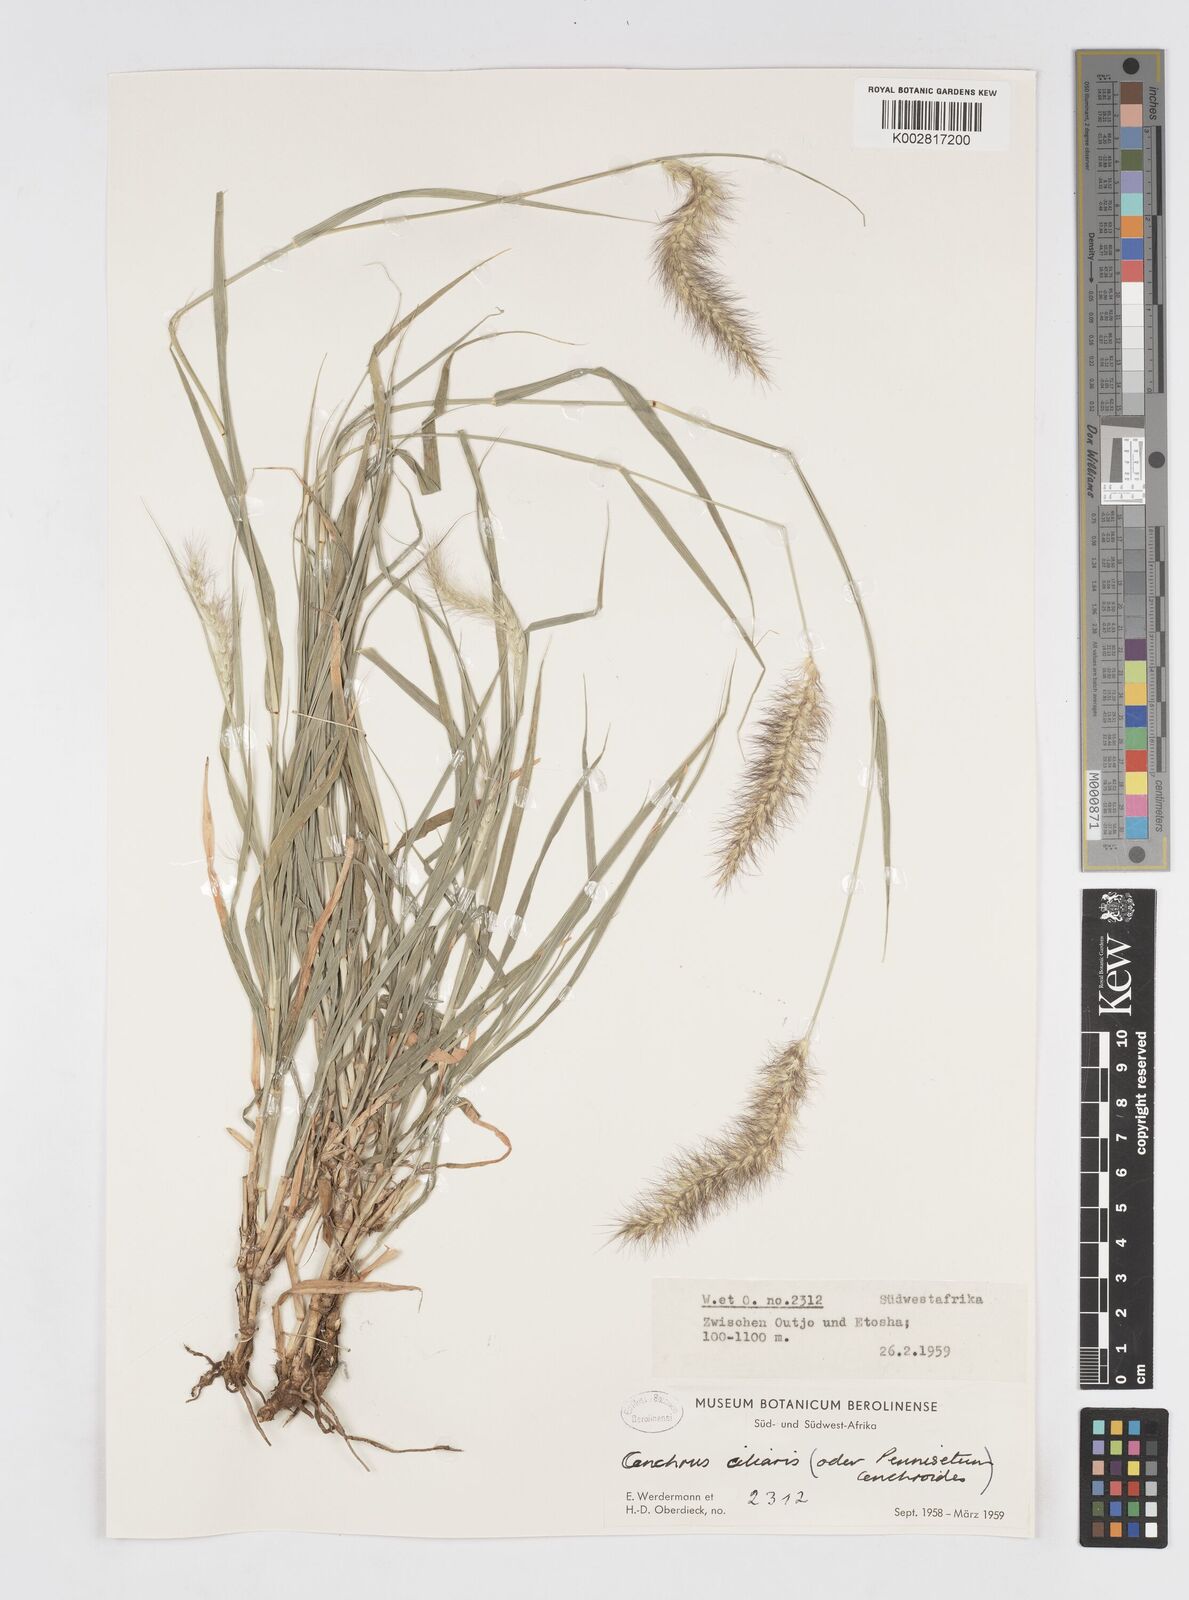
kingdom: Plantae
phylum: Tracheophyta
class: Liliopsida
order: Poales
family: Poaceae
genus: Cenchrus
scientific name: Cenchrus ciliaris
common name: Buffelgrass
